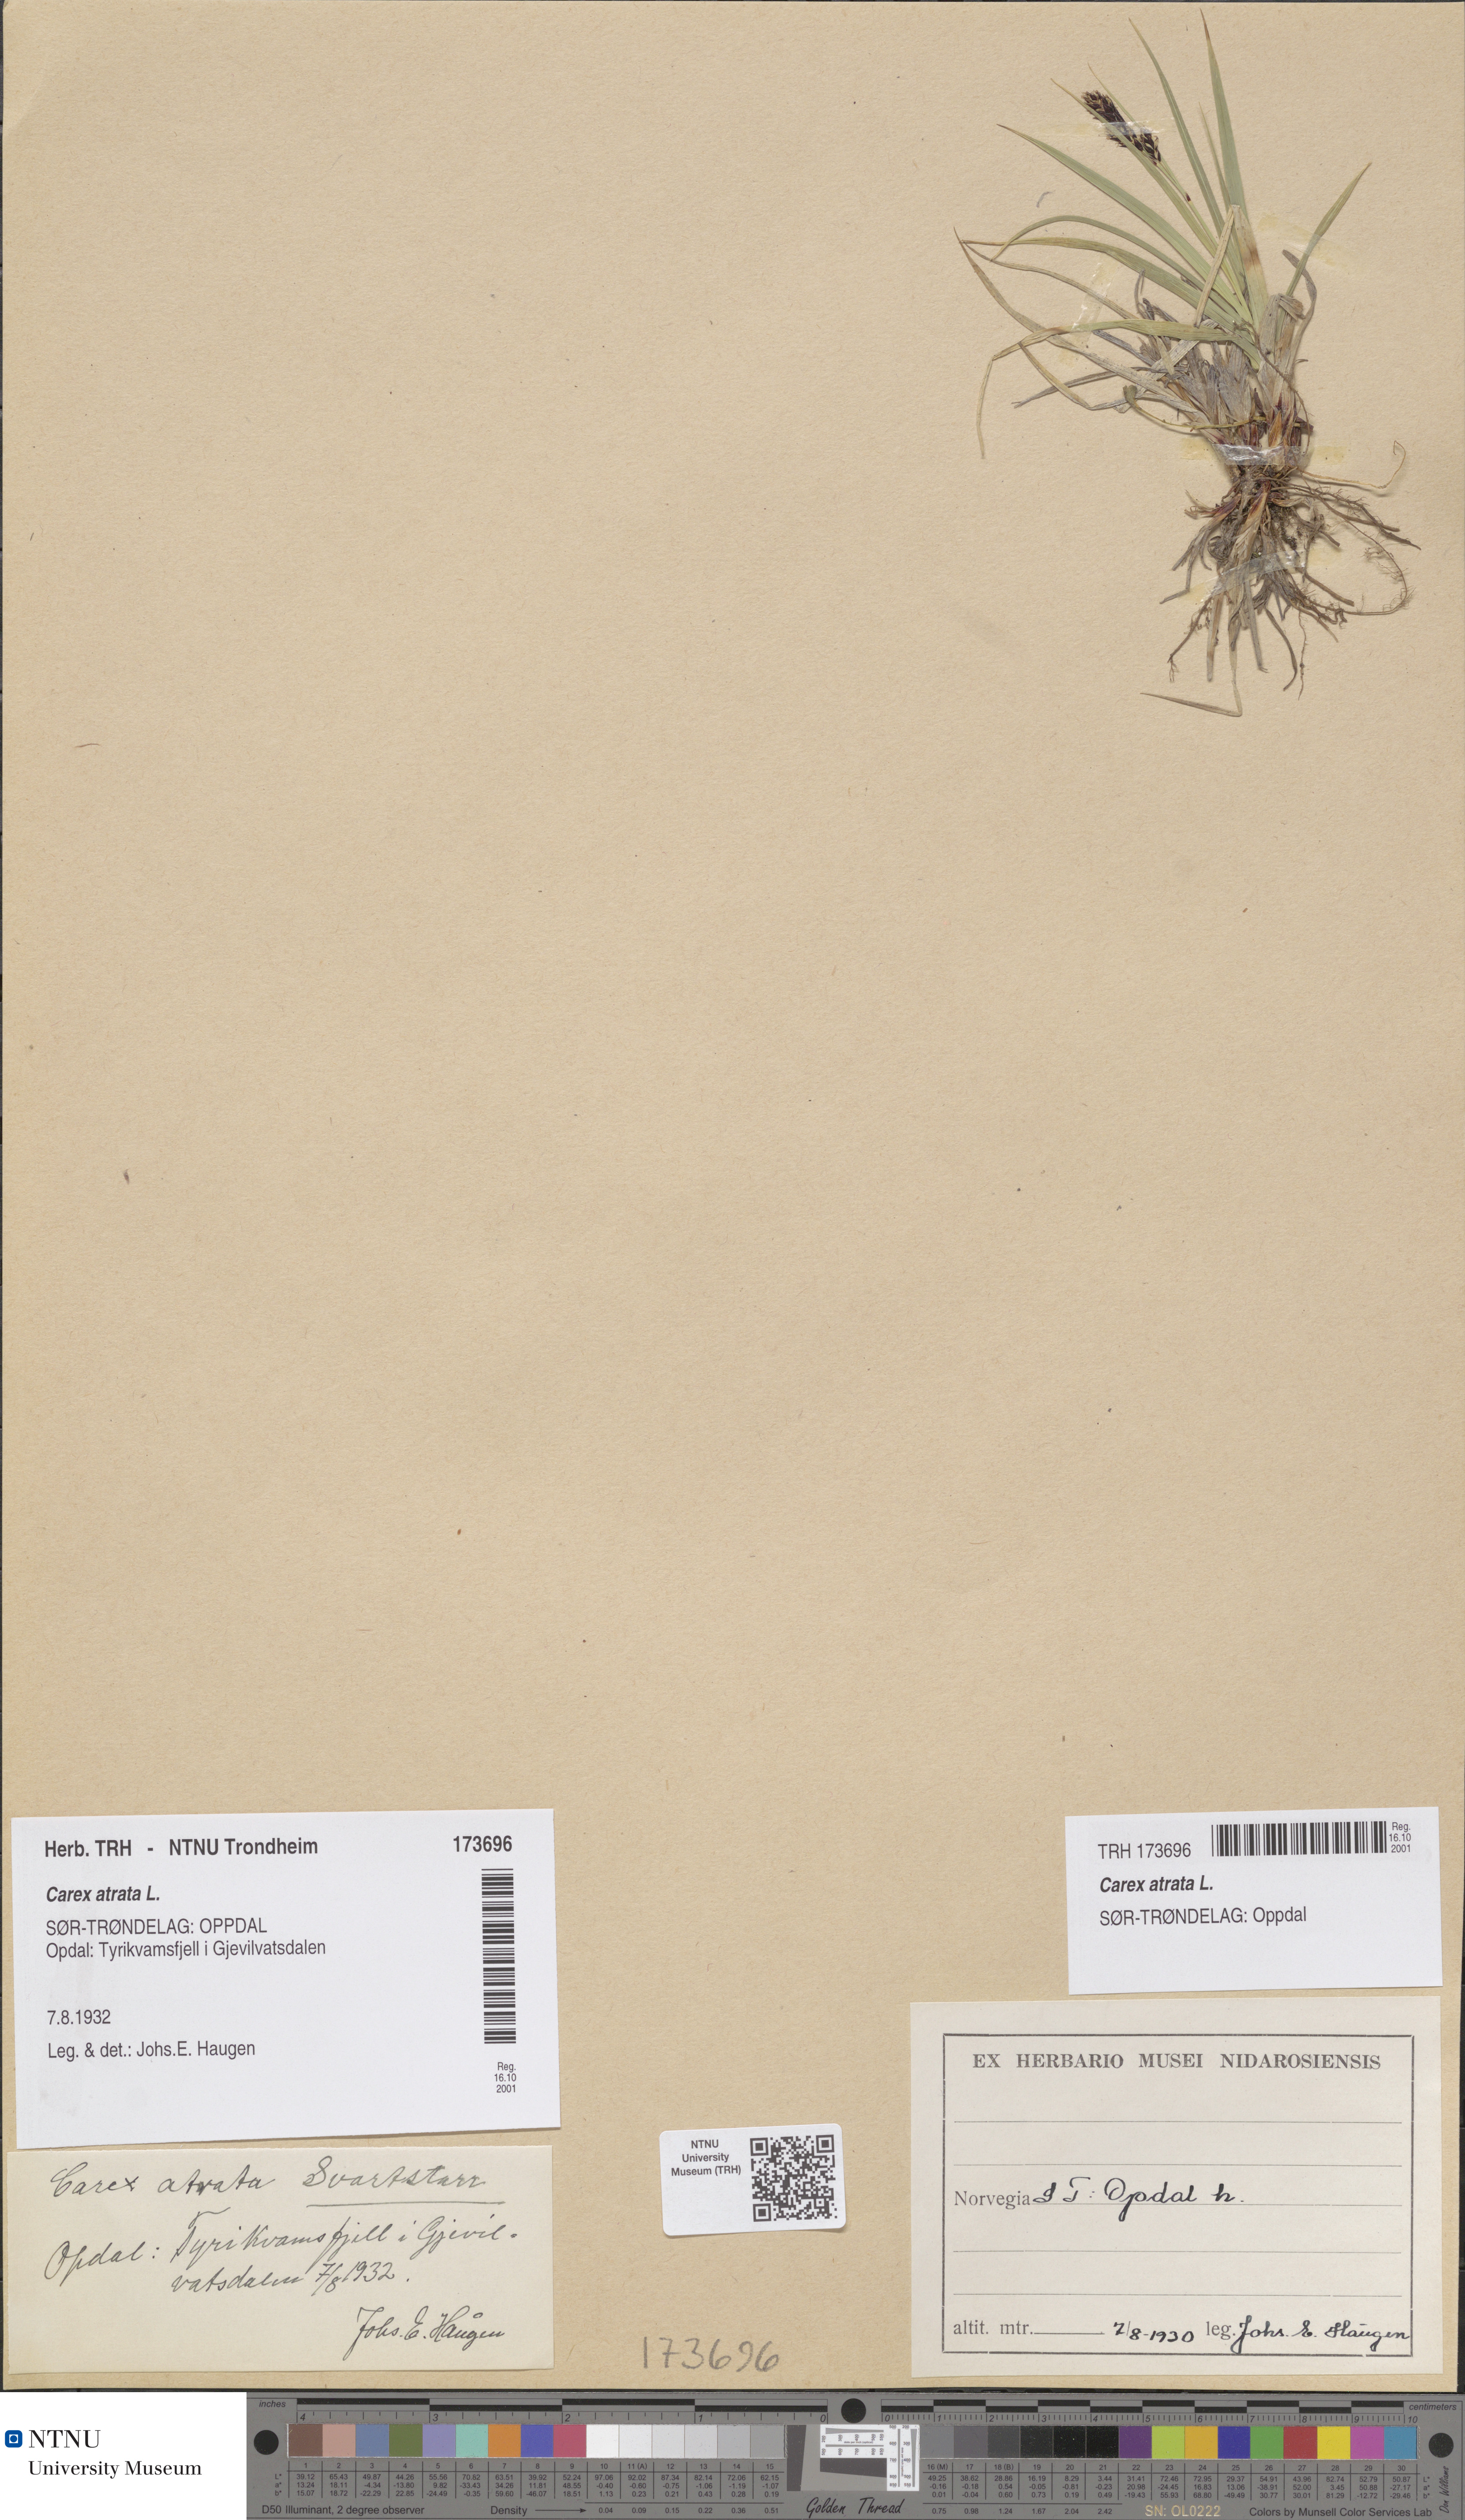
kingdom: Plantae
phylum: Tracheophyta
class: Liliopsida
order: Poales
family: Cyperaceae
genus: Carex
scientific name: Carex atrata
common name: Black alpine sedge
